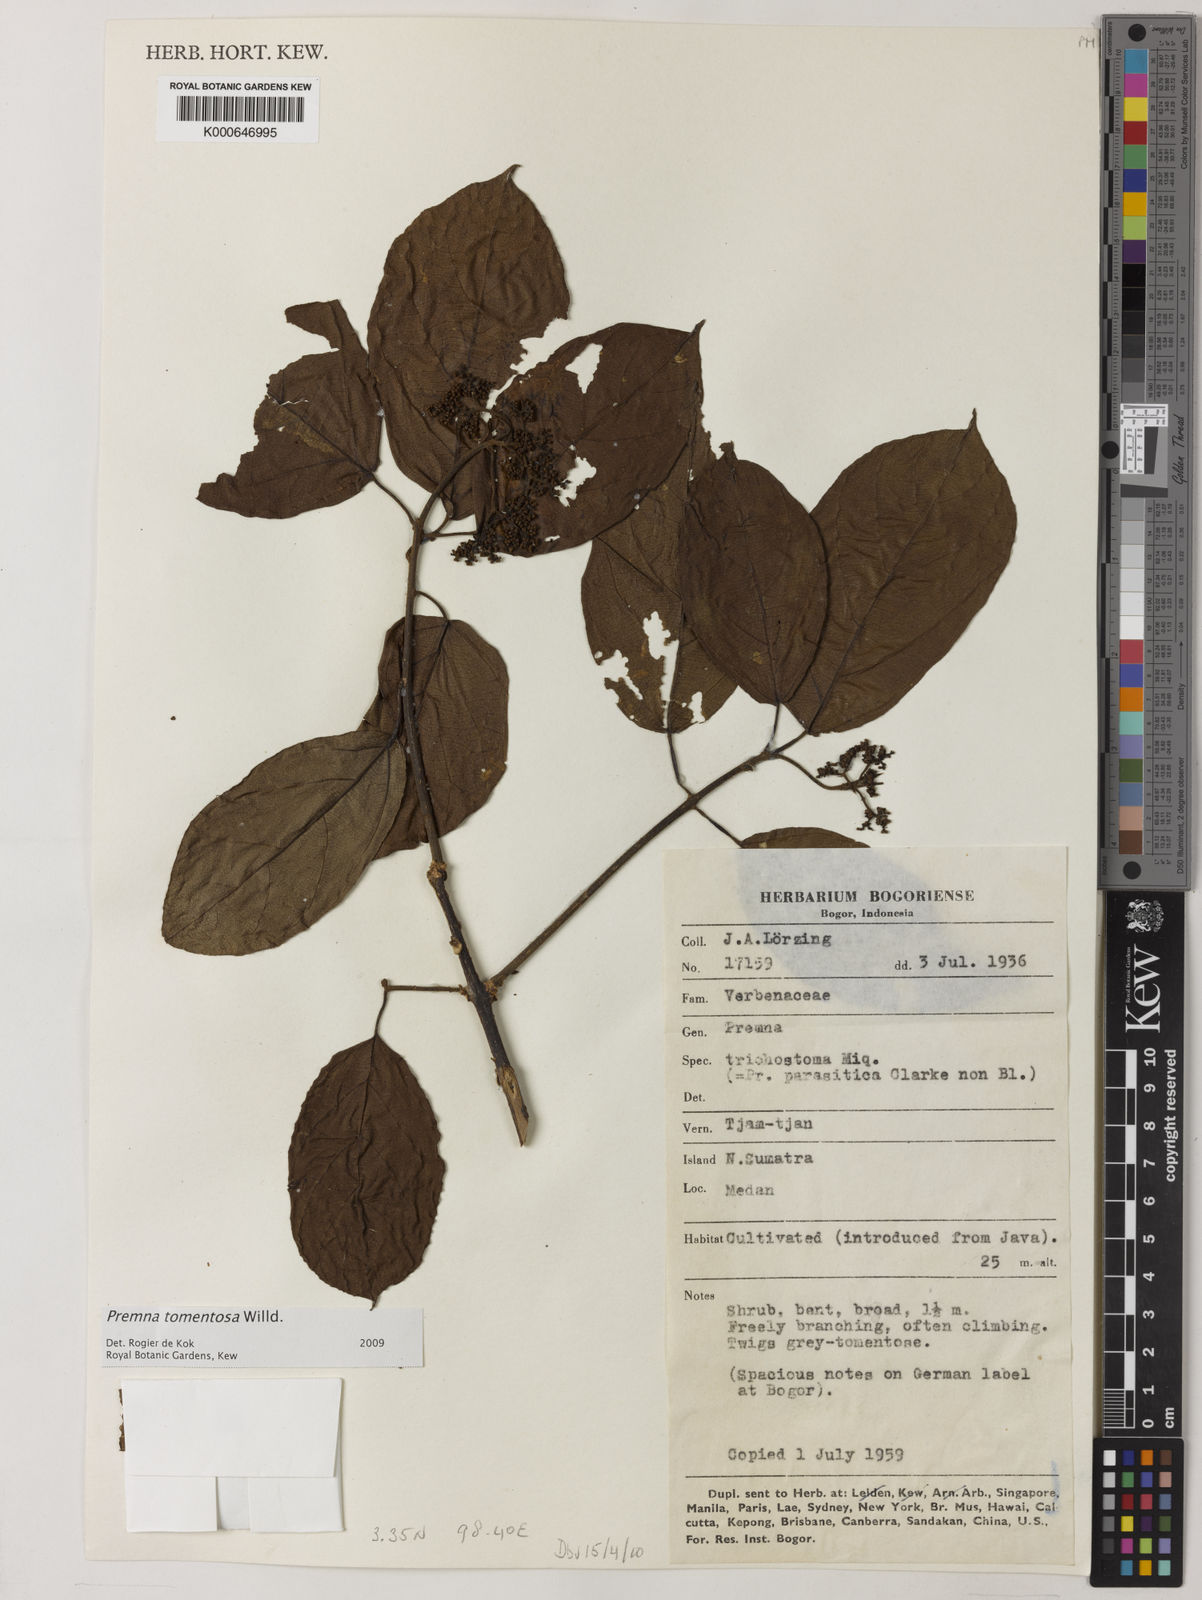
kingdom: Plantae
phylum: Tracheophyta
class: Magnoliopsida
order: Lamiales
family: Lamiaceae
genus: Premna
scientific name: Premna trichostoma
